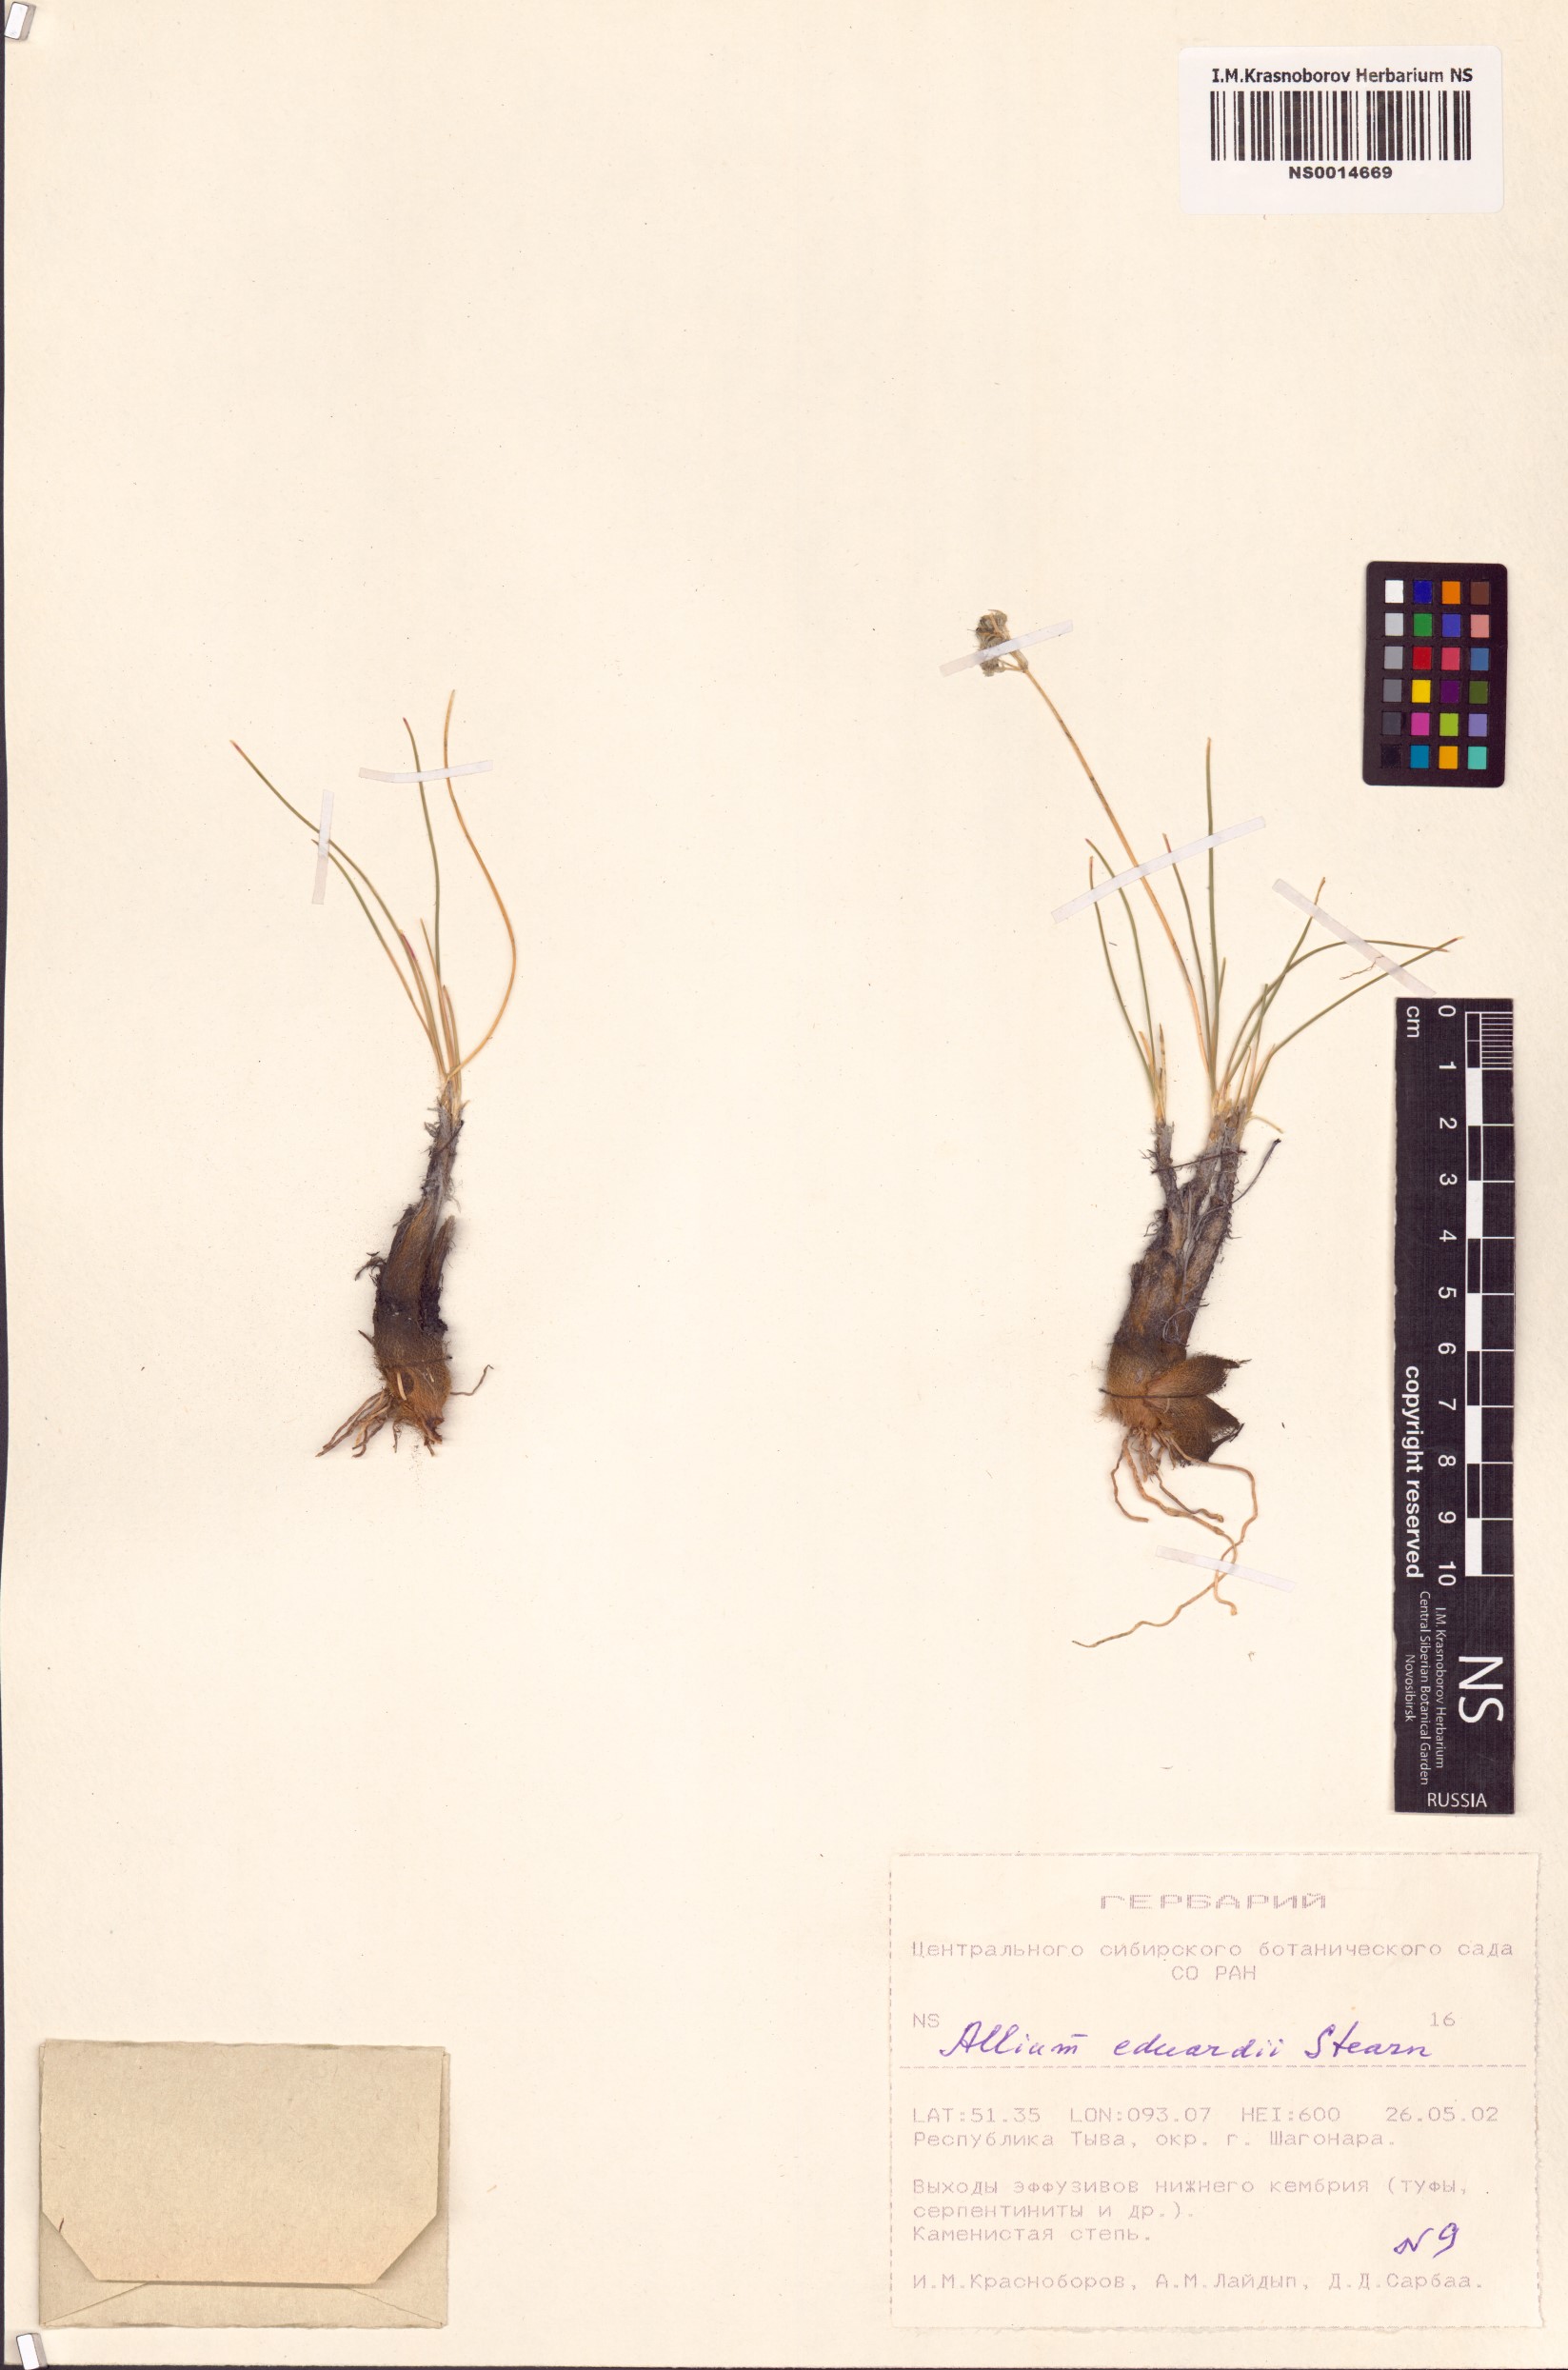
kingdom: Plantae
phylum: Tracheophyta
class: Liliopsida
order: Asparagales
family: Amaryllidaceae
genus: Allium
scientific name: Allium eduardi
